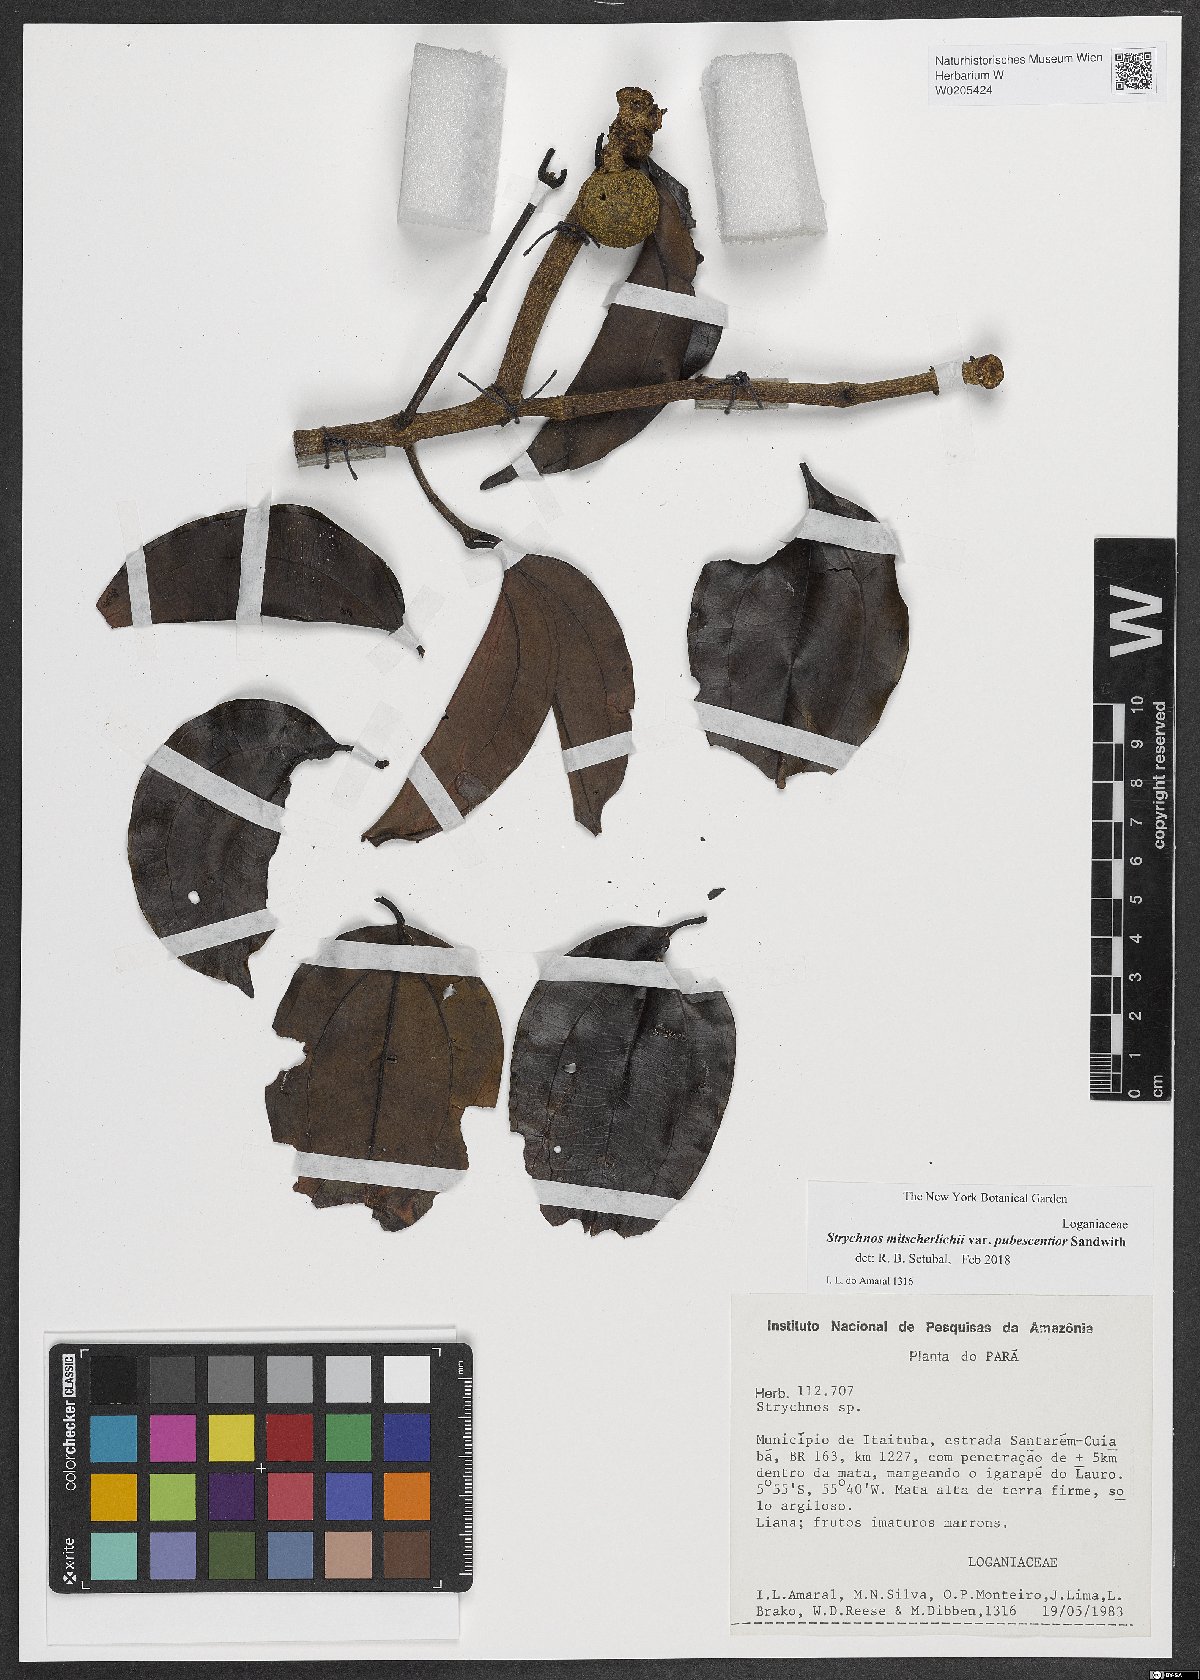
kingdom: Plantae
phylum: Tracheophyta
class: Magnoliopsida
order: Gentianales
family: Loganiaceae
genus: Strychnos
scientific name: Strychnos mitscherlichii
